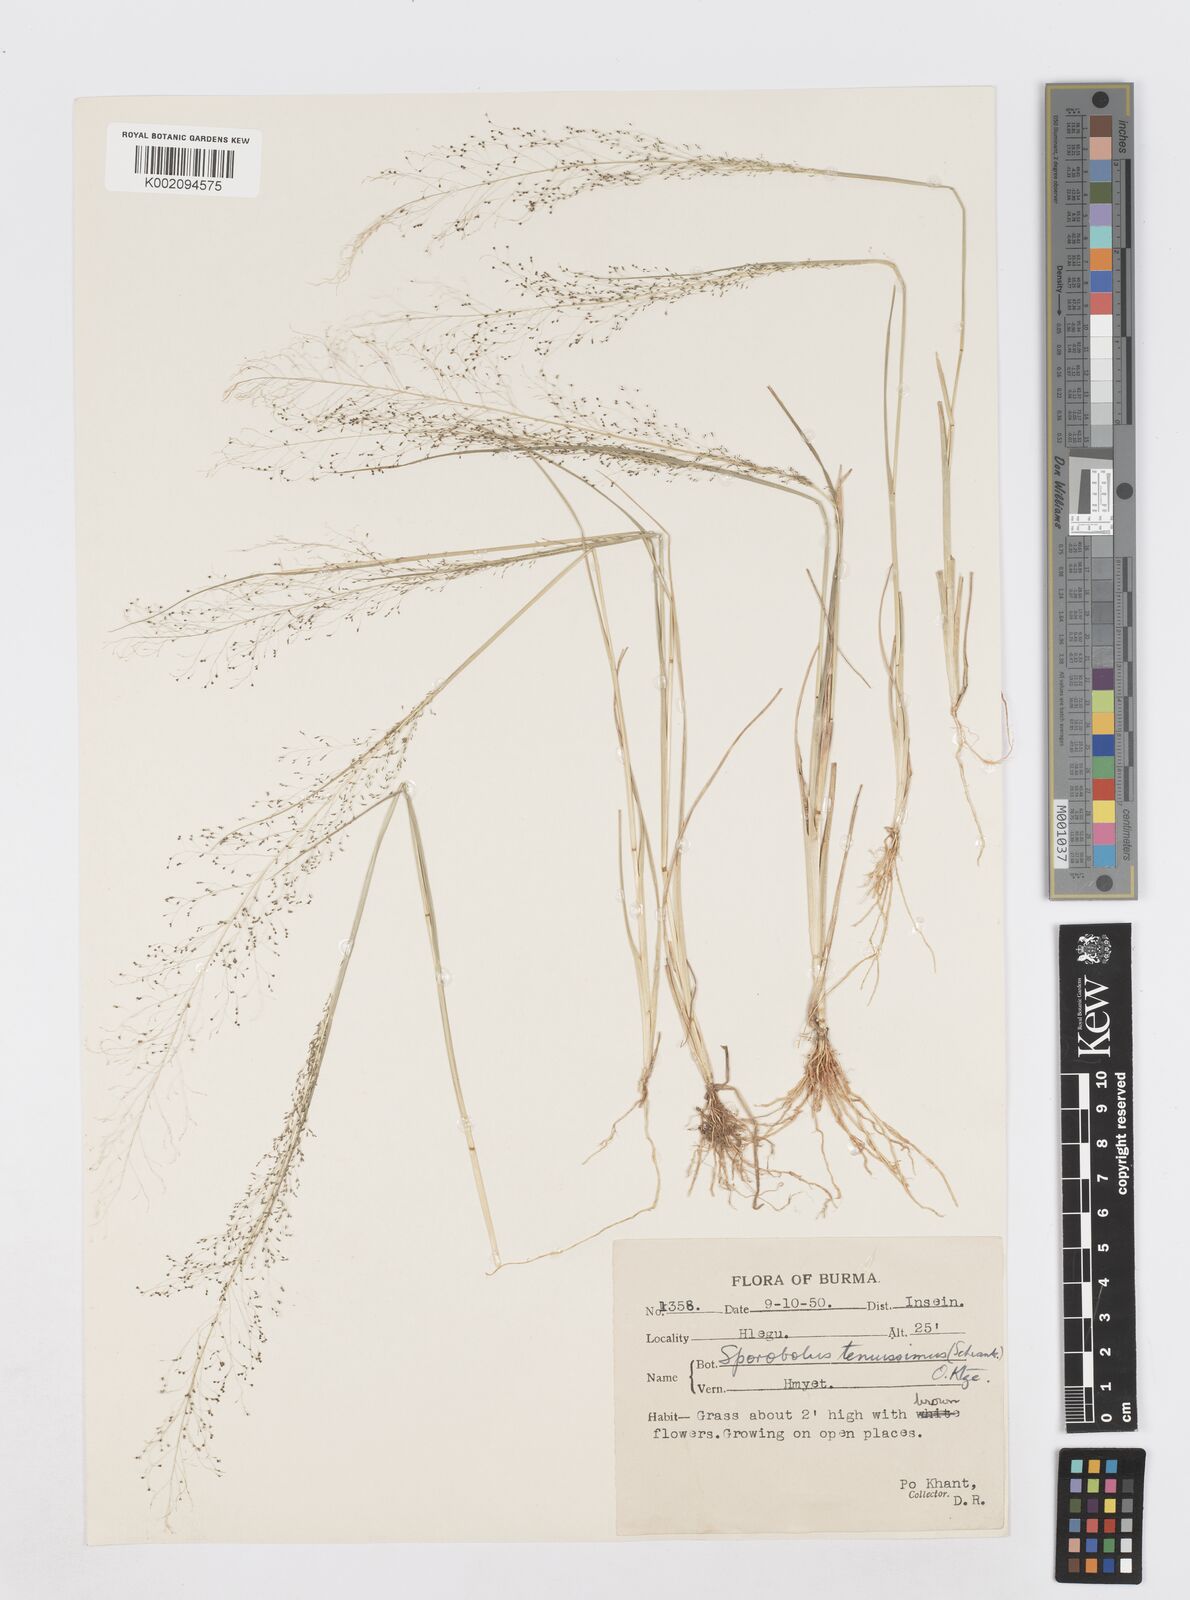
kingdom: Plantae
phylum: Tracheophyta
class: Liliopsida
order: Poales
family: Poaceae
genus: Sporobolus
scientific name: Sporobolus tenuissimus
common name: Tropical dropseed
